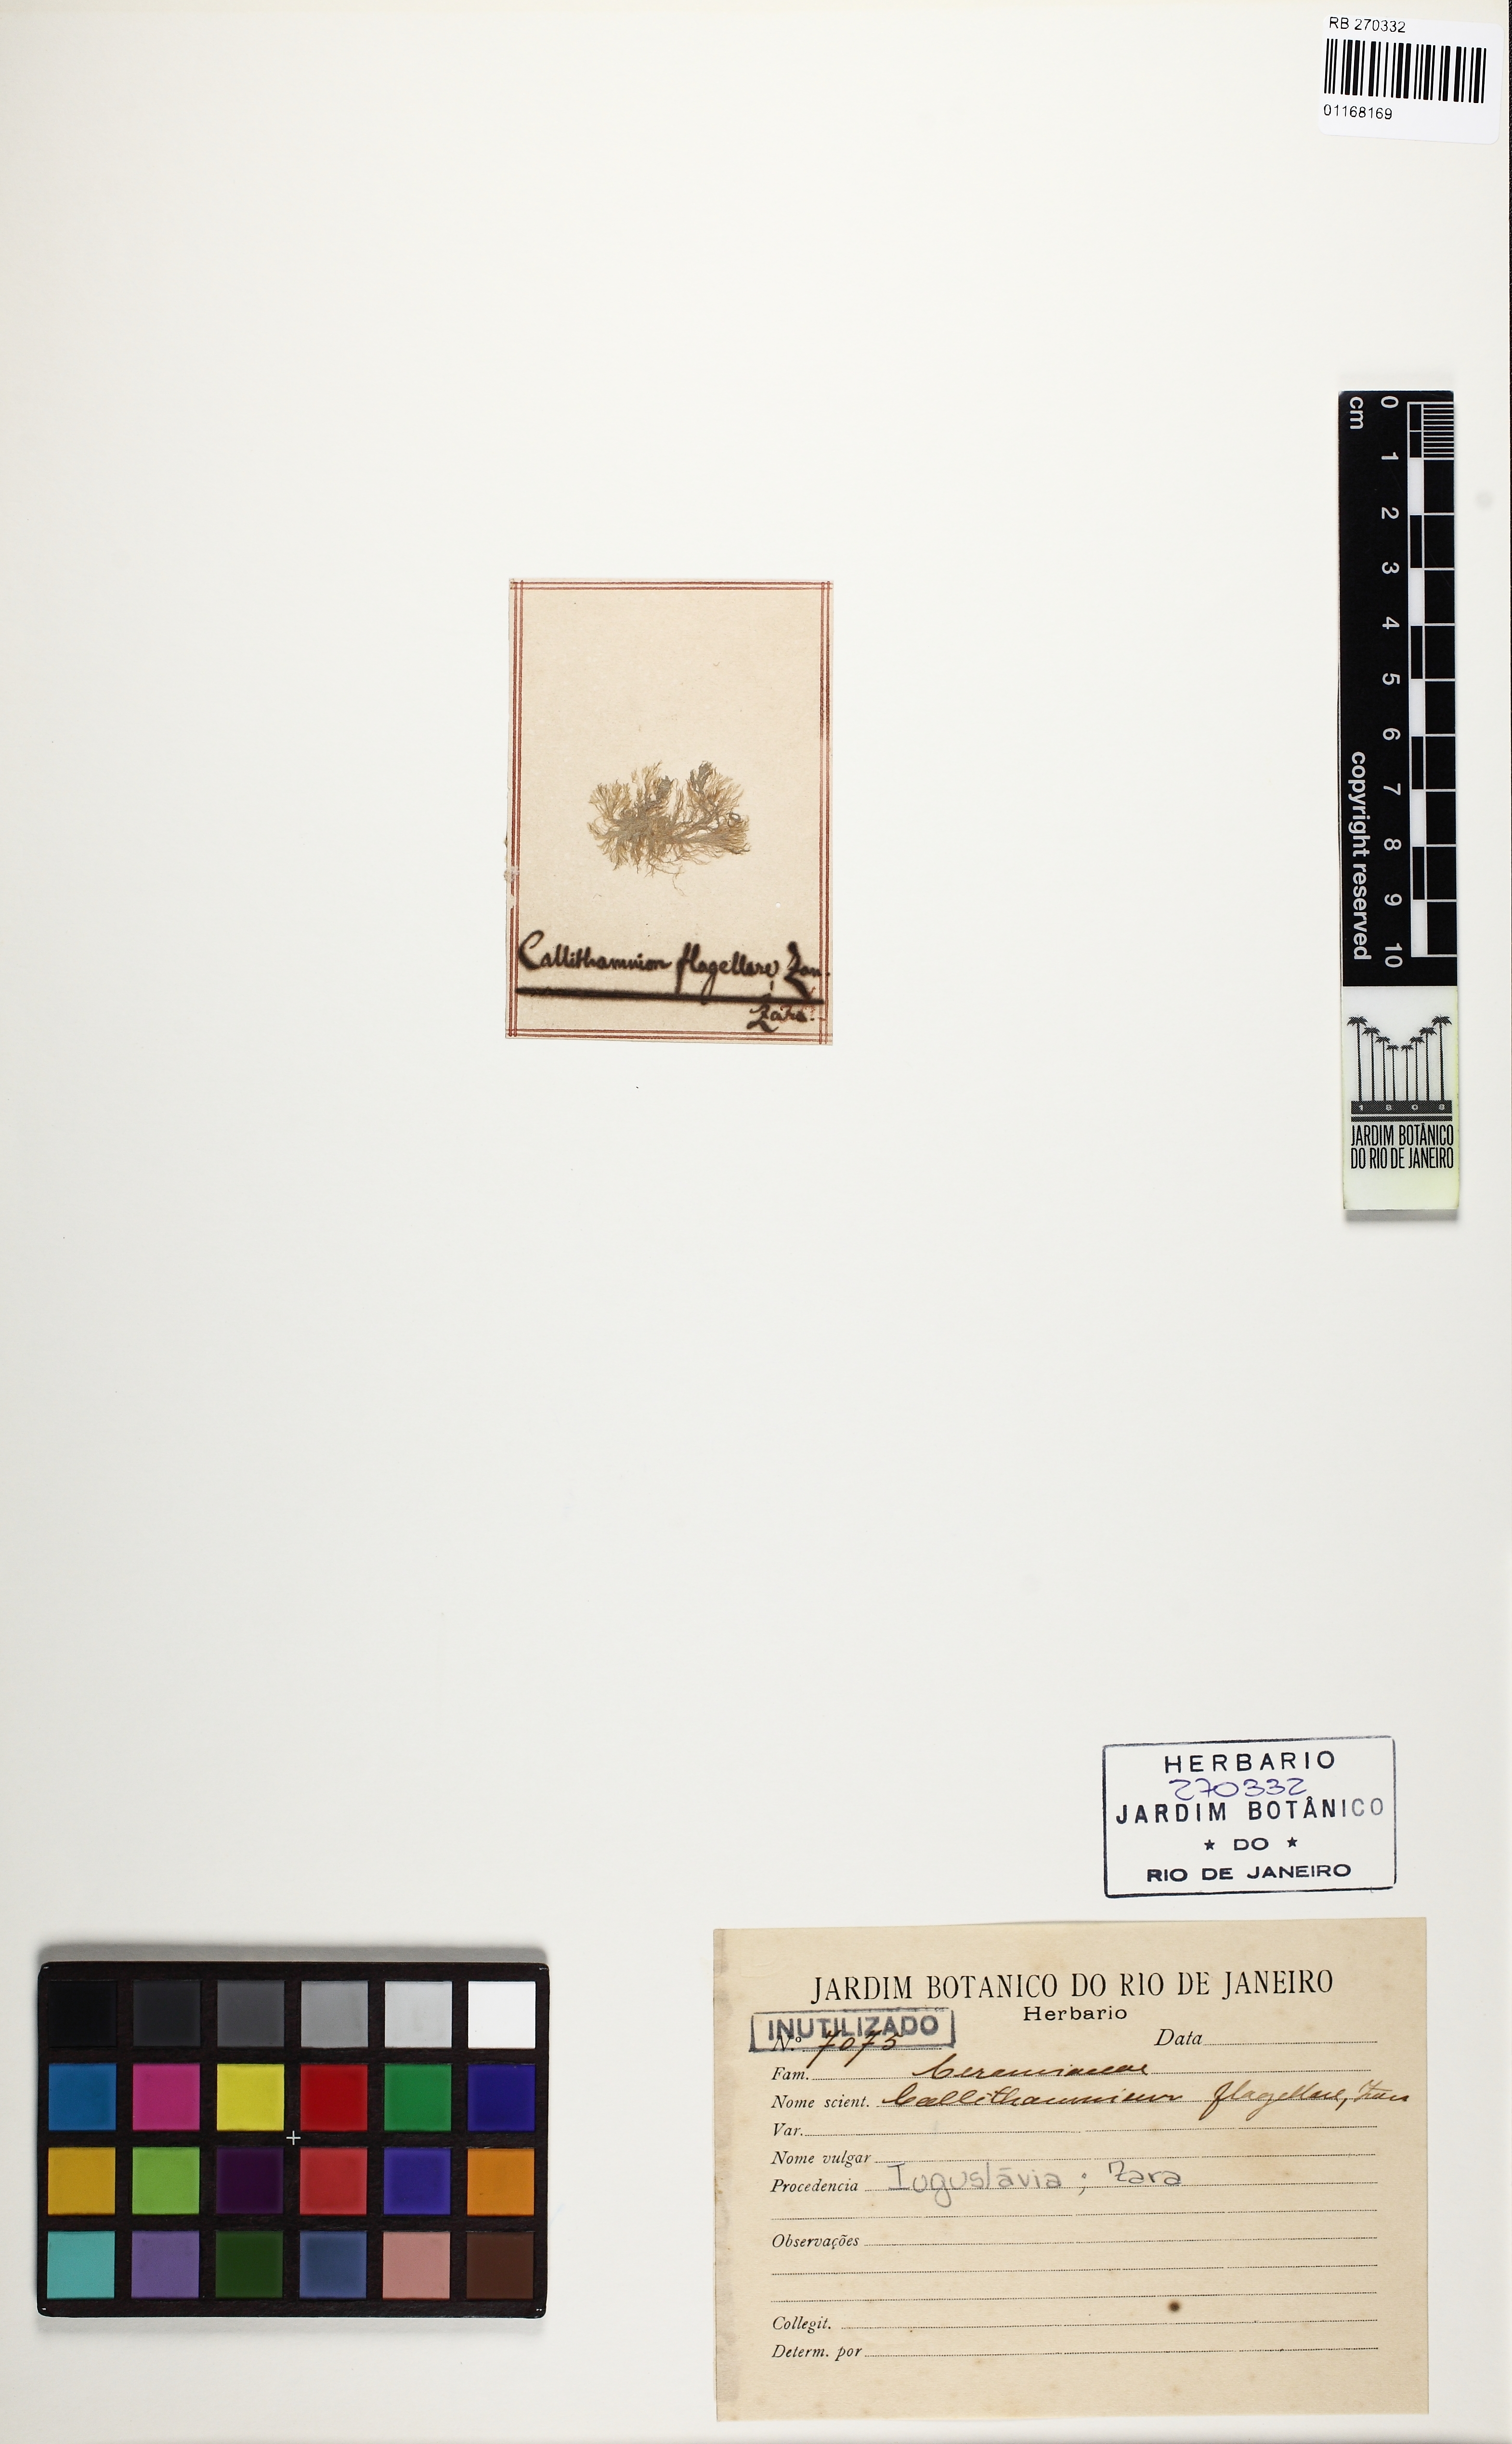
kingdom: Plantae
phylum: Rhodophyta
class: Florideophyceae
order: Ceramiales
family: Callithamniaceae
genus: Callithamnion
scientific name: Callithamnion
